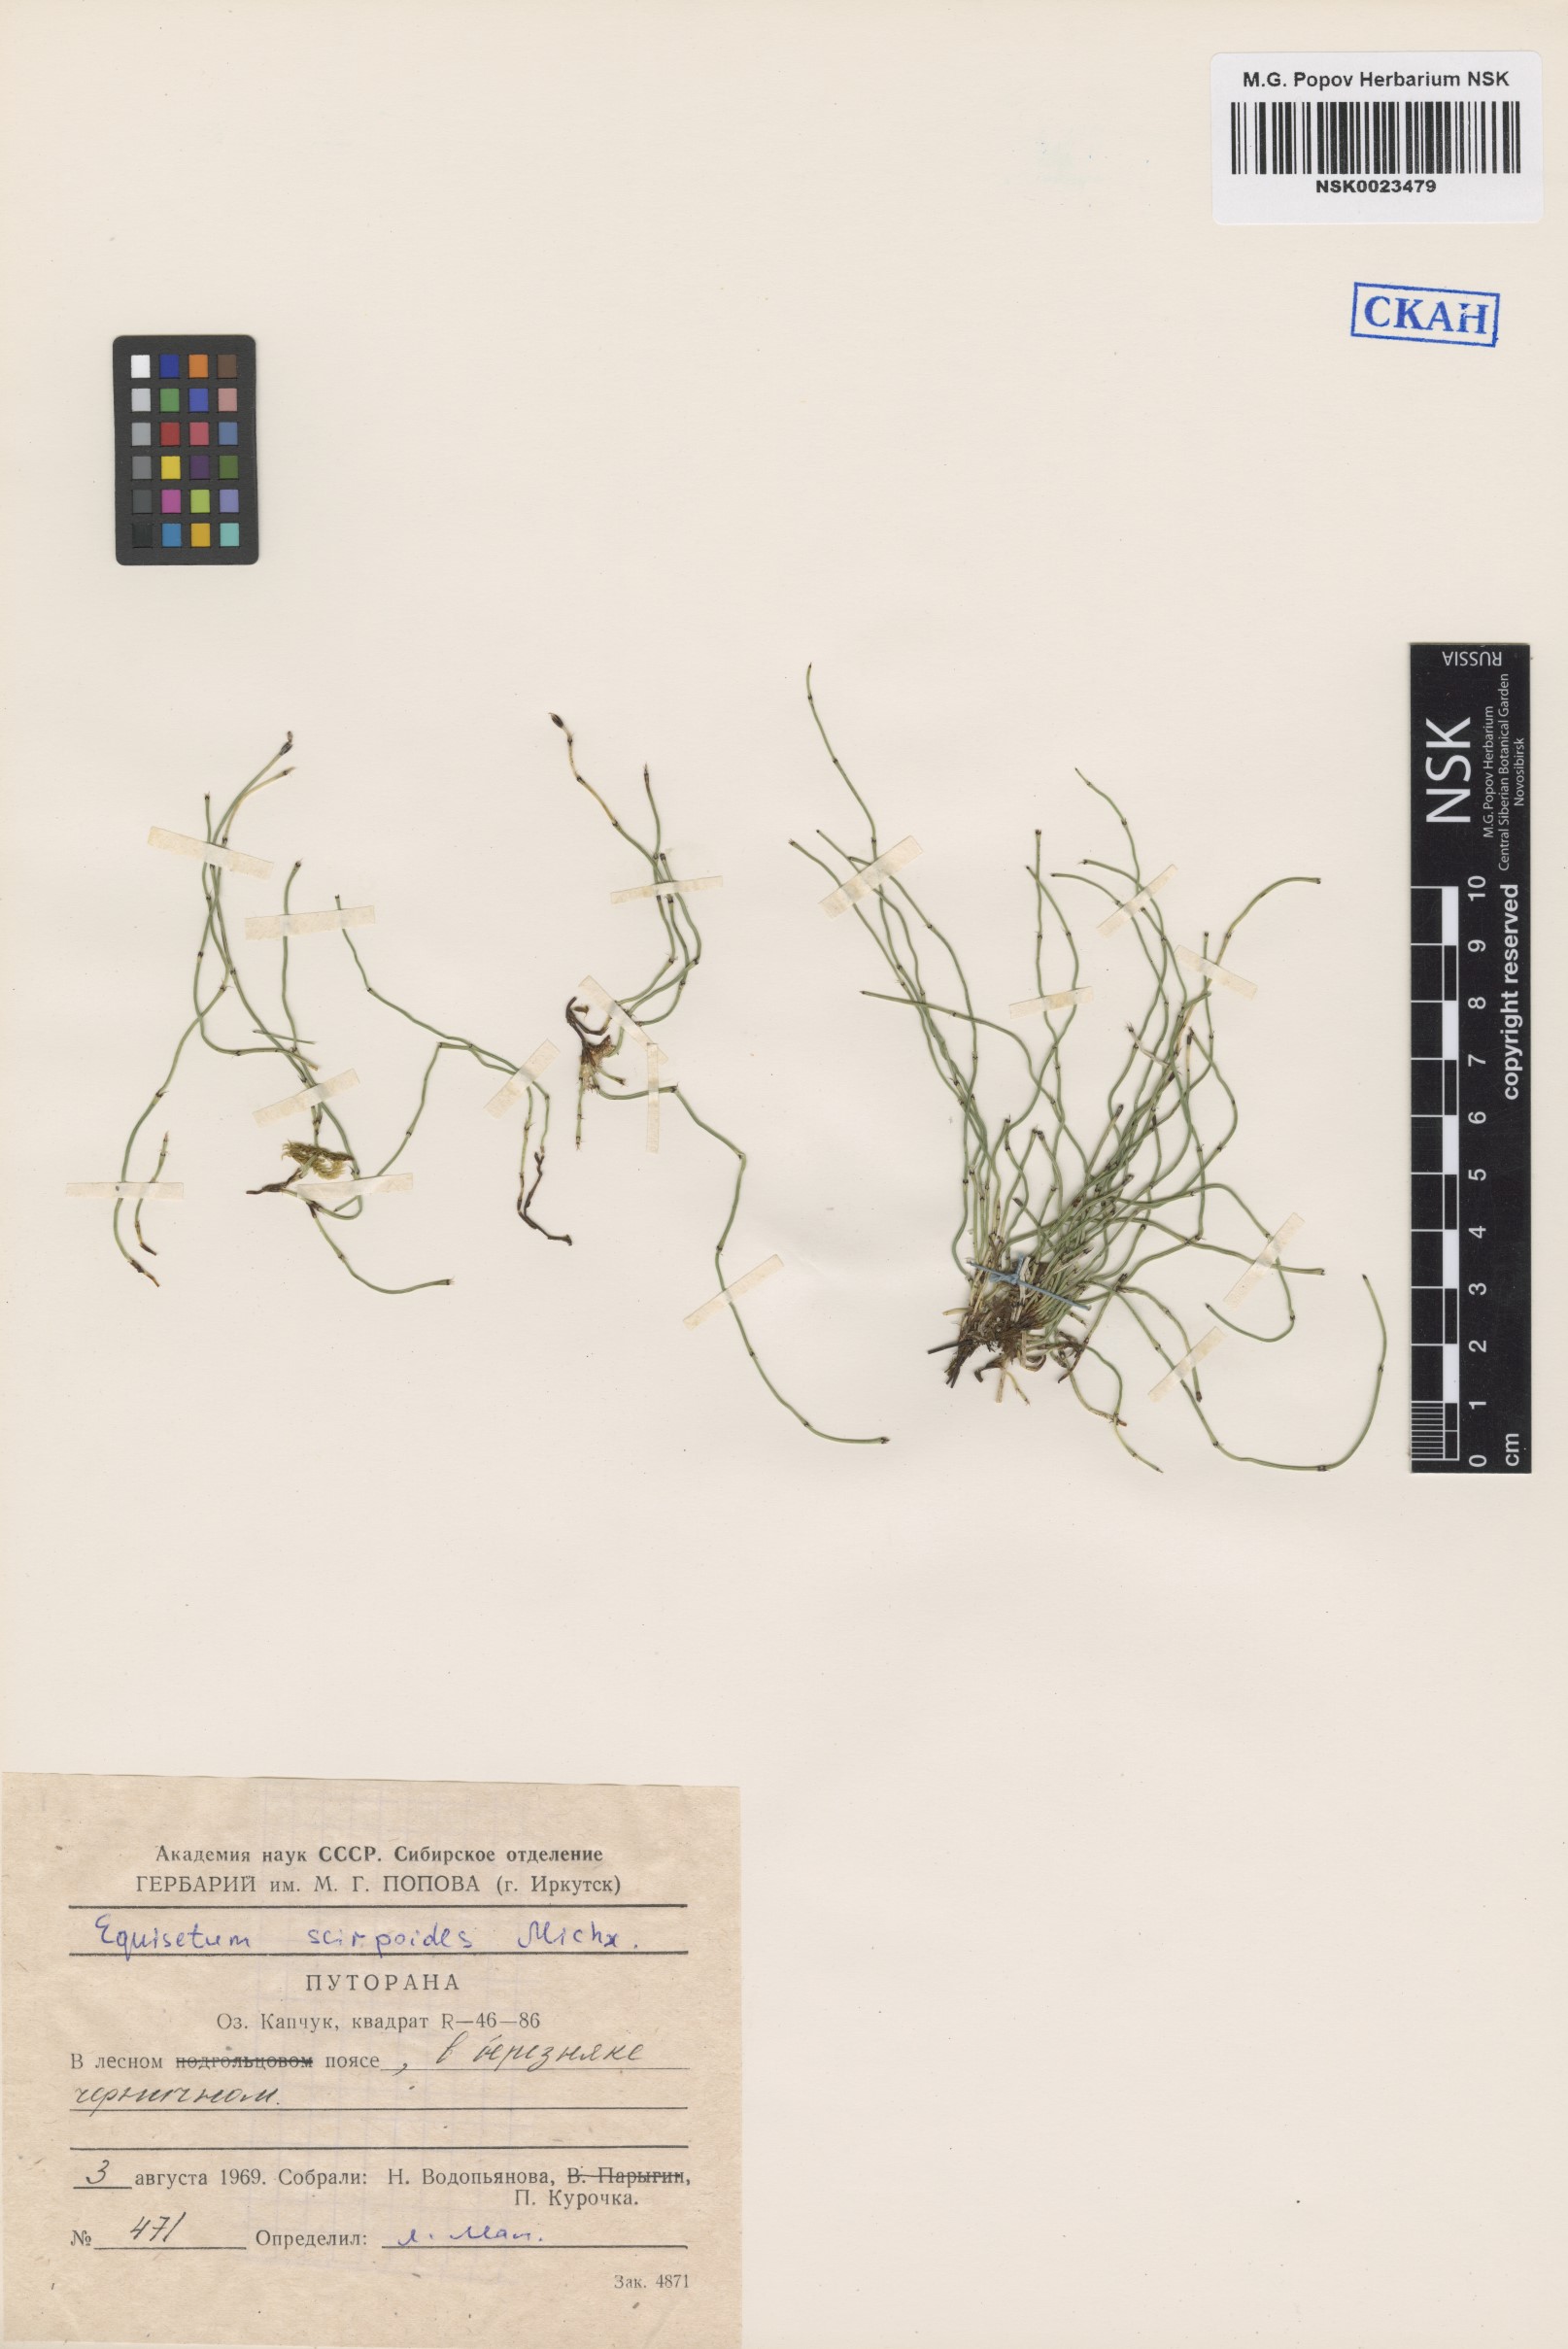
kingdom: Plantae
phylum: Tracheophyta
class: Polypodiopsida
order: Equisetales
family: Equisetaceae
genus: Equisetum
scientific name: Equisetum scirpoides
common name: Delicate horsetail
